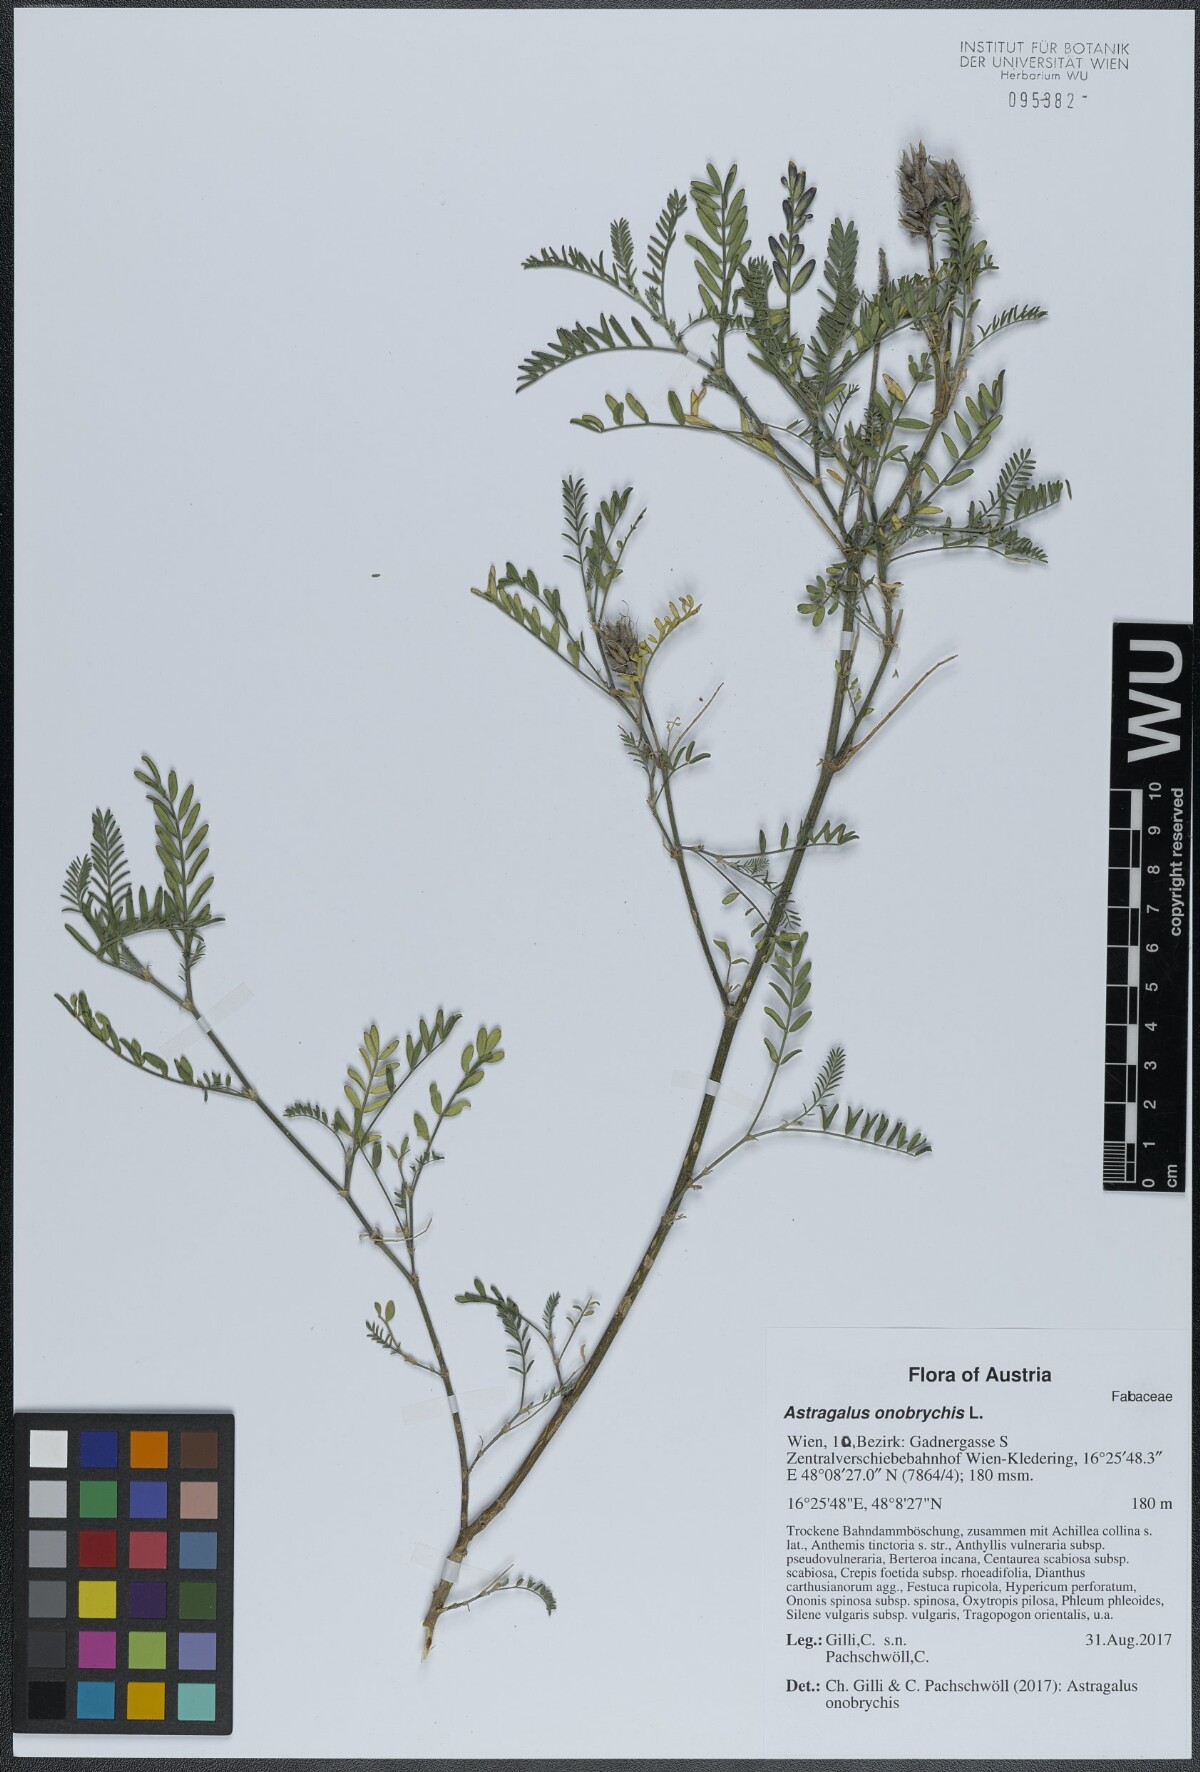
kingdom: Plantae
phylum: Tracheophyta
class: Magnoliopsida
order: Fabales
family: Fabaceae
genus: Astragalus
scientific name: Astragalus onobrychis
